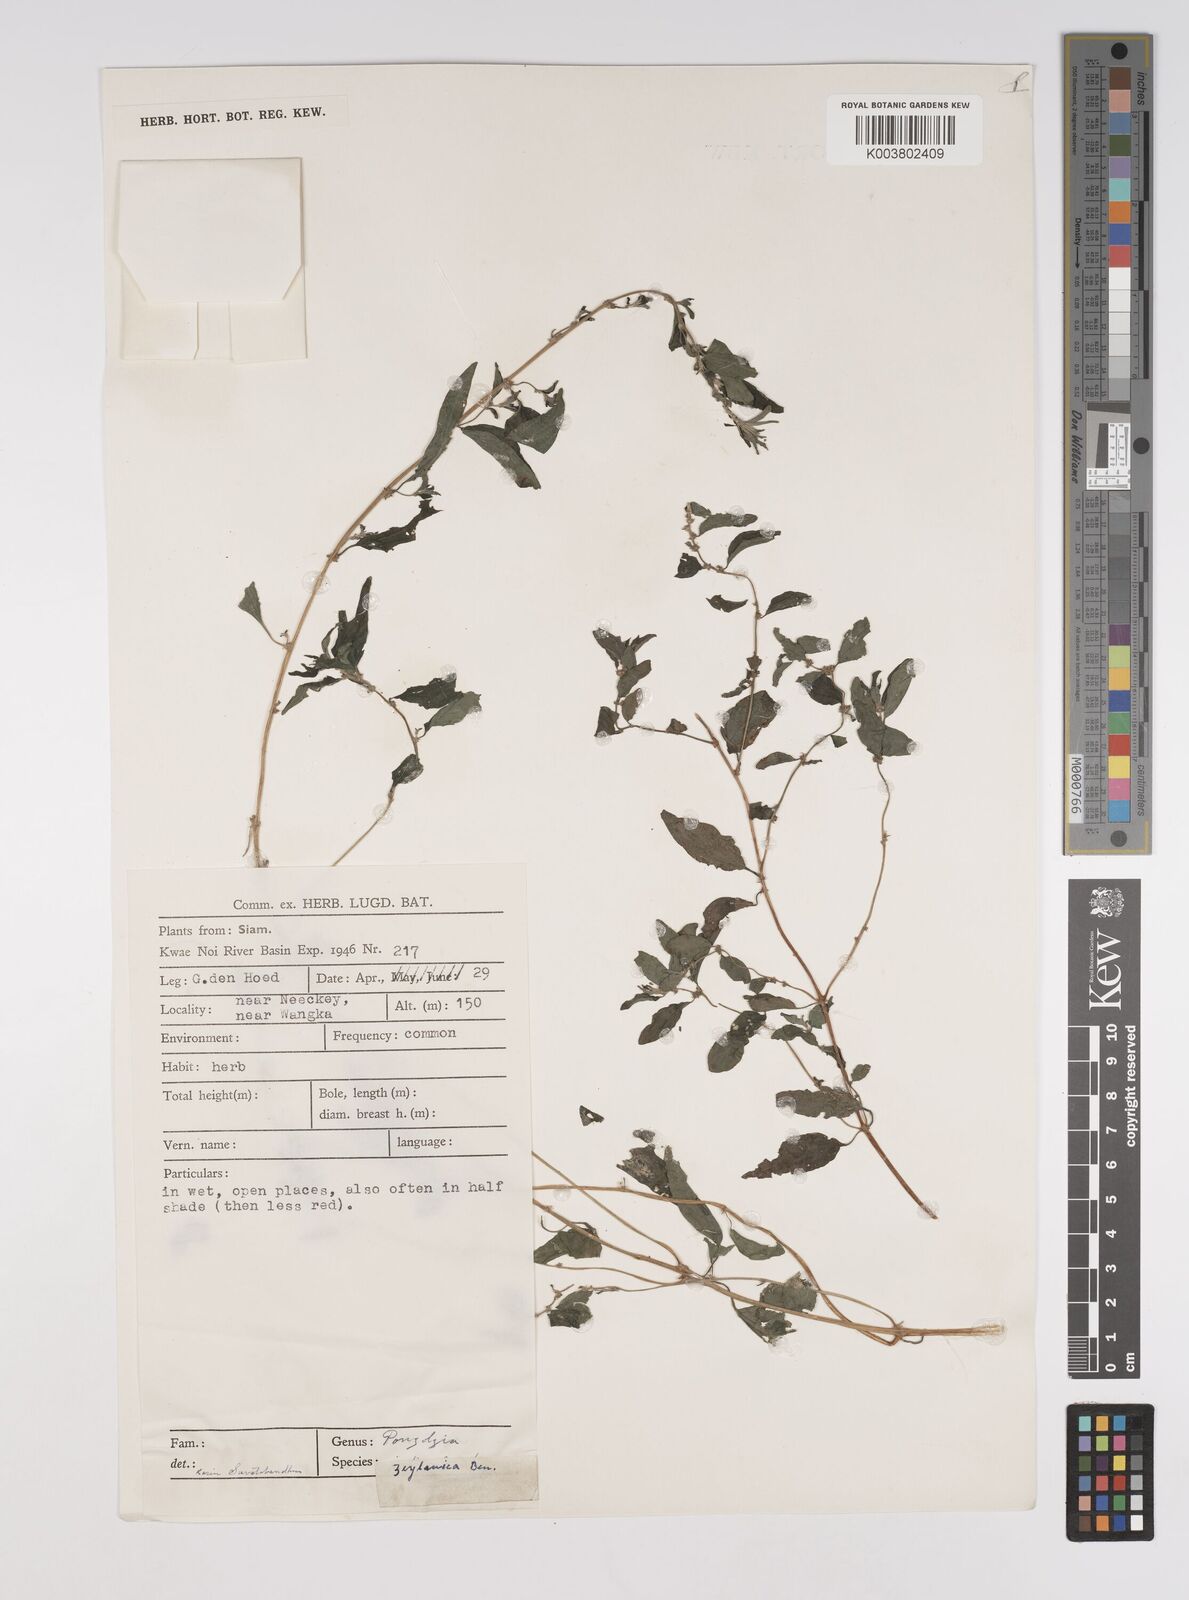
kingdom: Plantae
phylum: Tracheophyta
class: Magnoliopsida
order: Rosales
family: Urticaceae
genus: Pouzolzia
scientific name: Pouzolzia zeylanica
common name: Graceful pouzolzsbush
